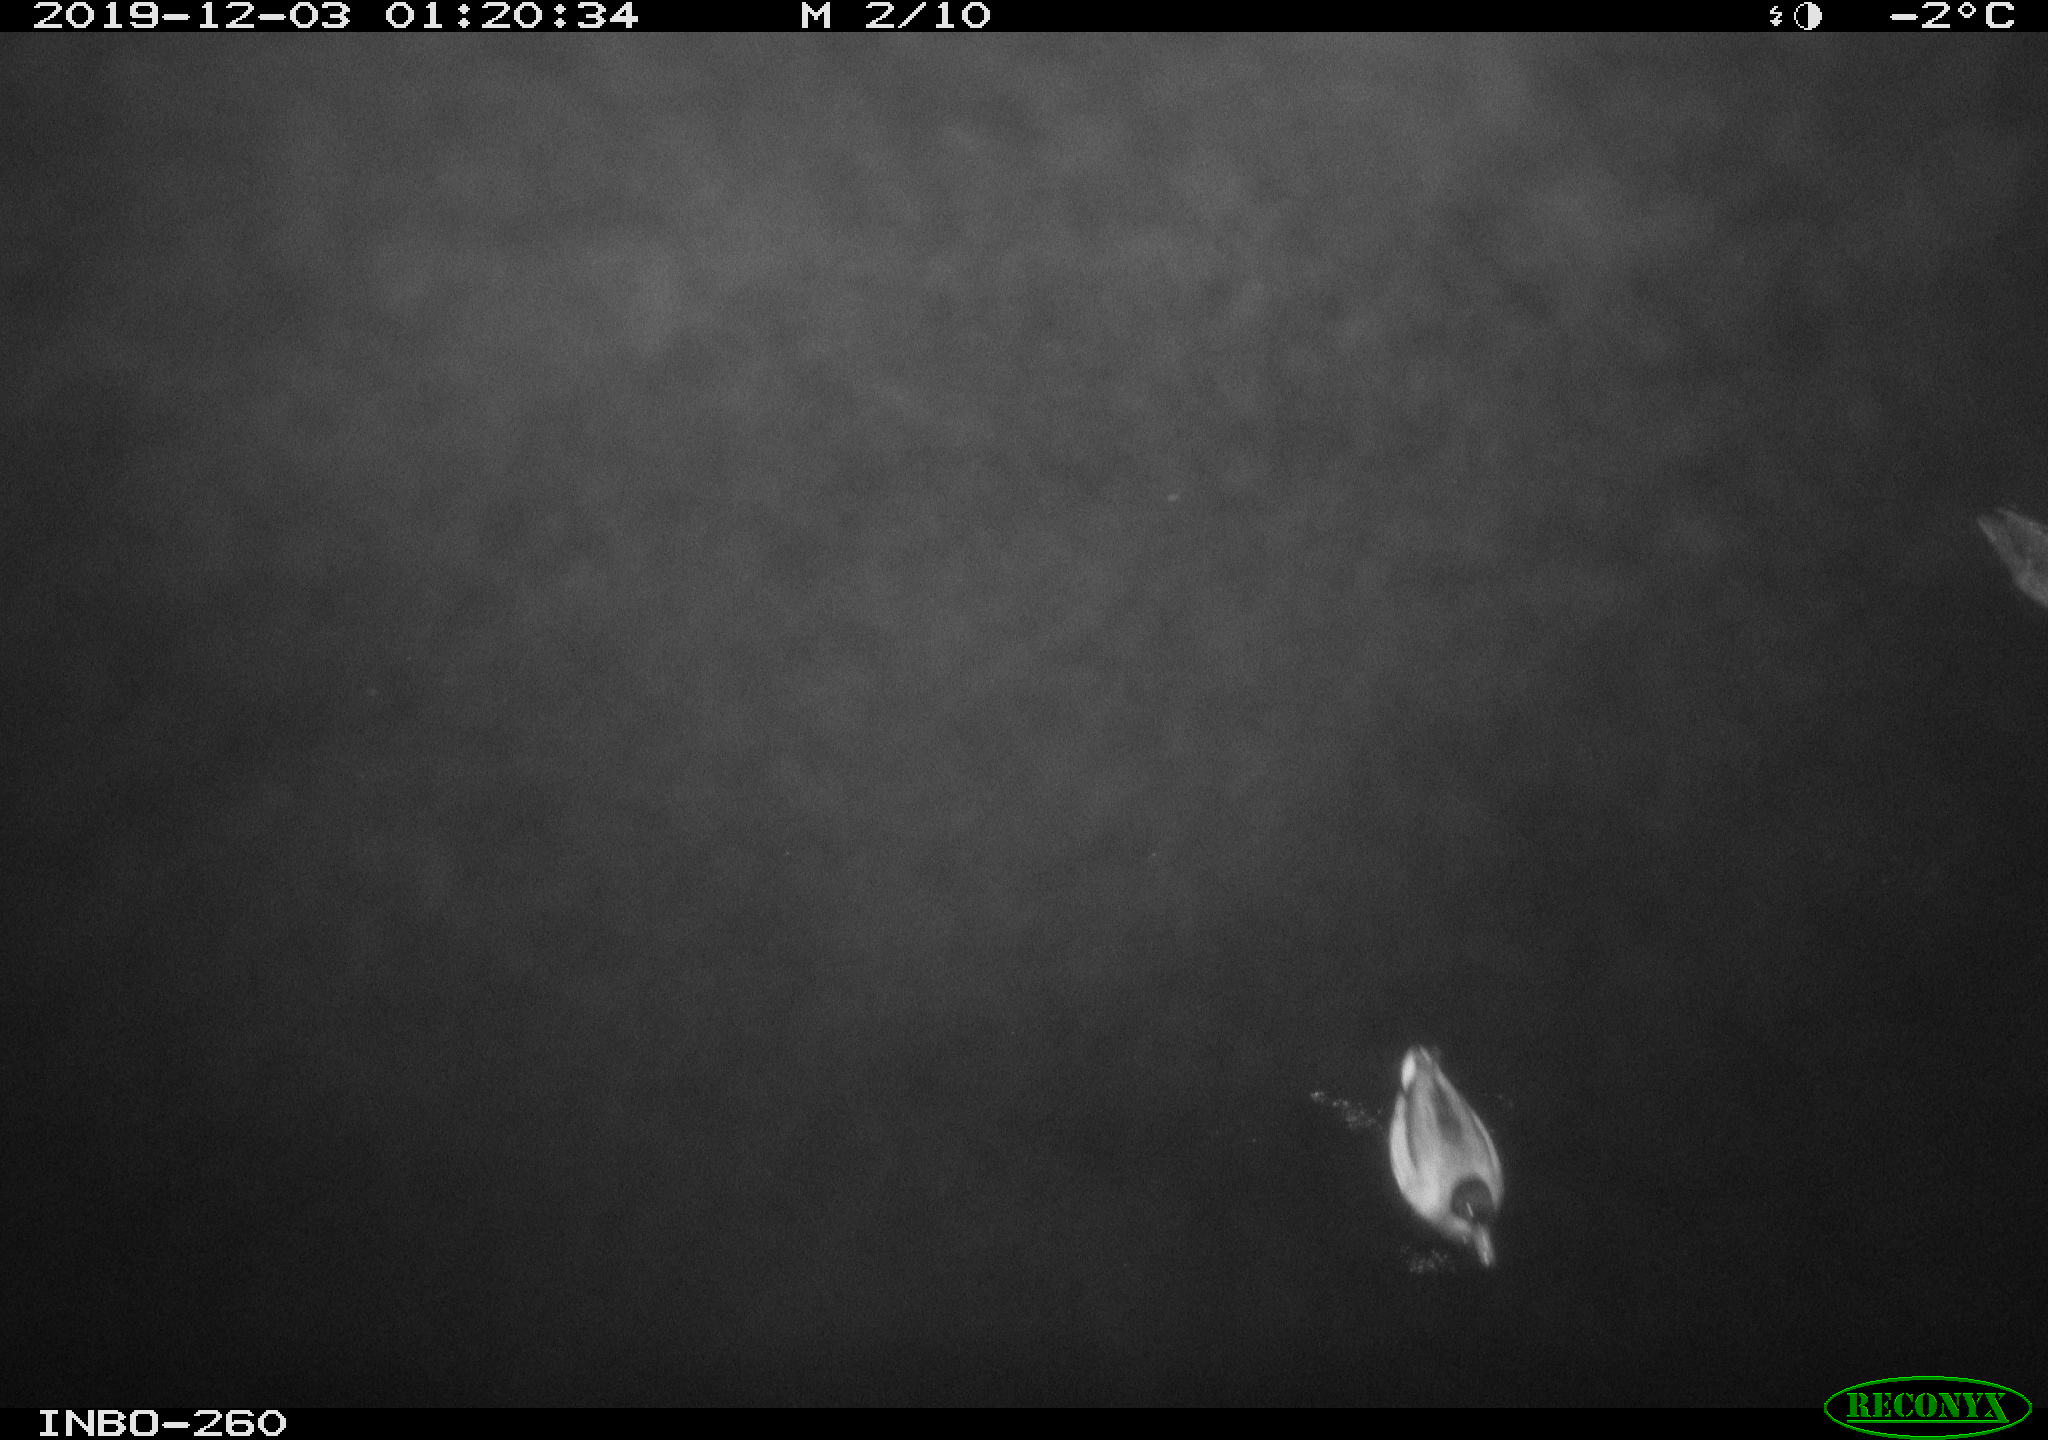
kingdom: Animalia
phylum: Chordata
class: Aves
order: Anseriformes
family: Anatidae
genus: Anas
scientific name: Anas platyrhynchos
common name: Mallard
